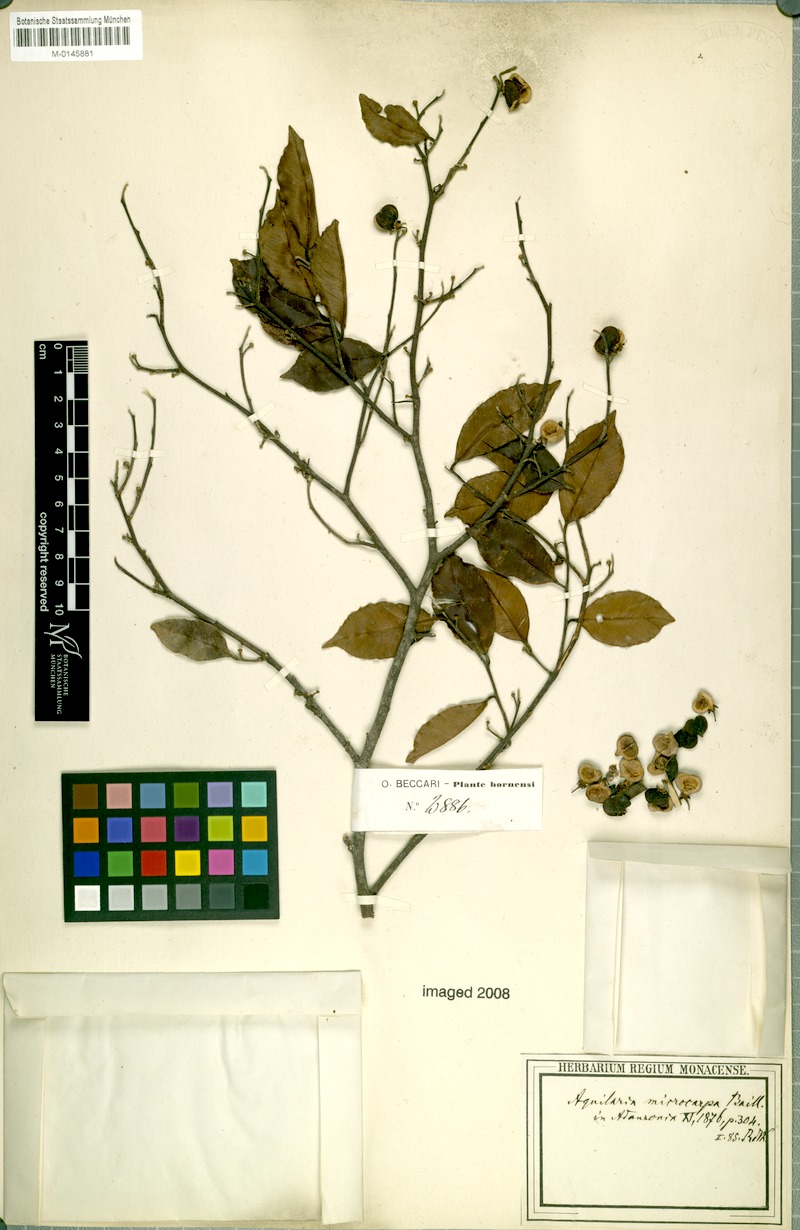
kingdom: Plantae
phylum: Tracheophyta
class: Magnoliopsida
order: Malvales
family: Thymelaeaceae
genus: Aquilaria
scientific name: Aquilaria microcarpa
